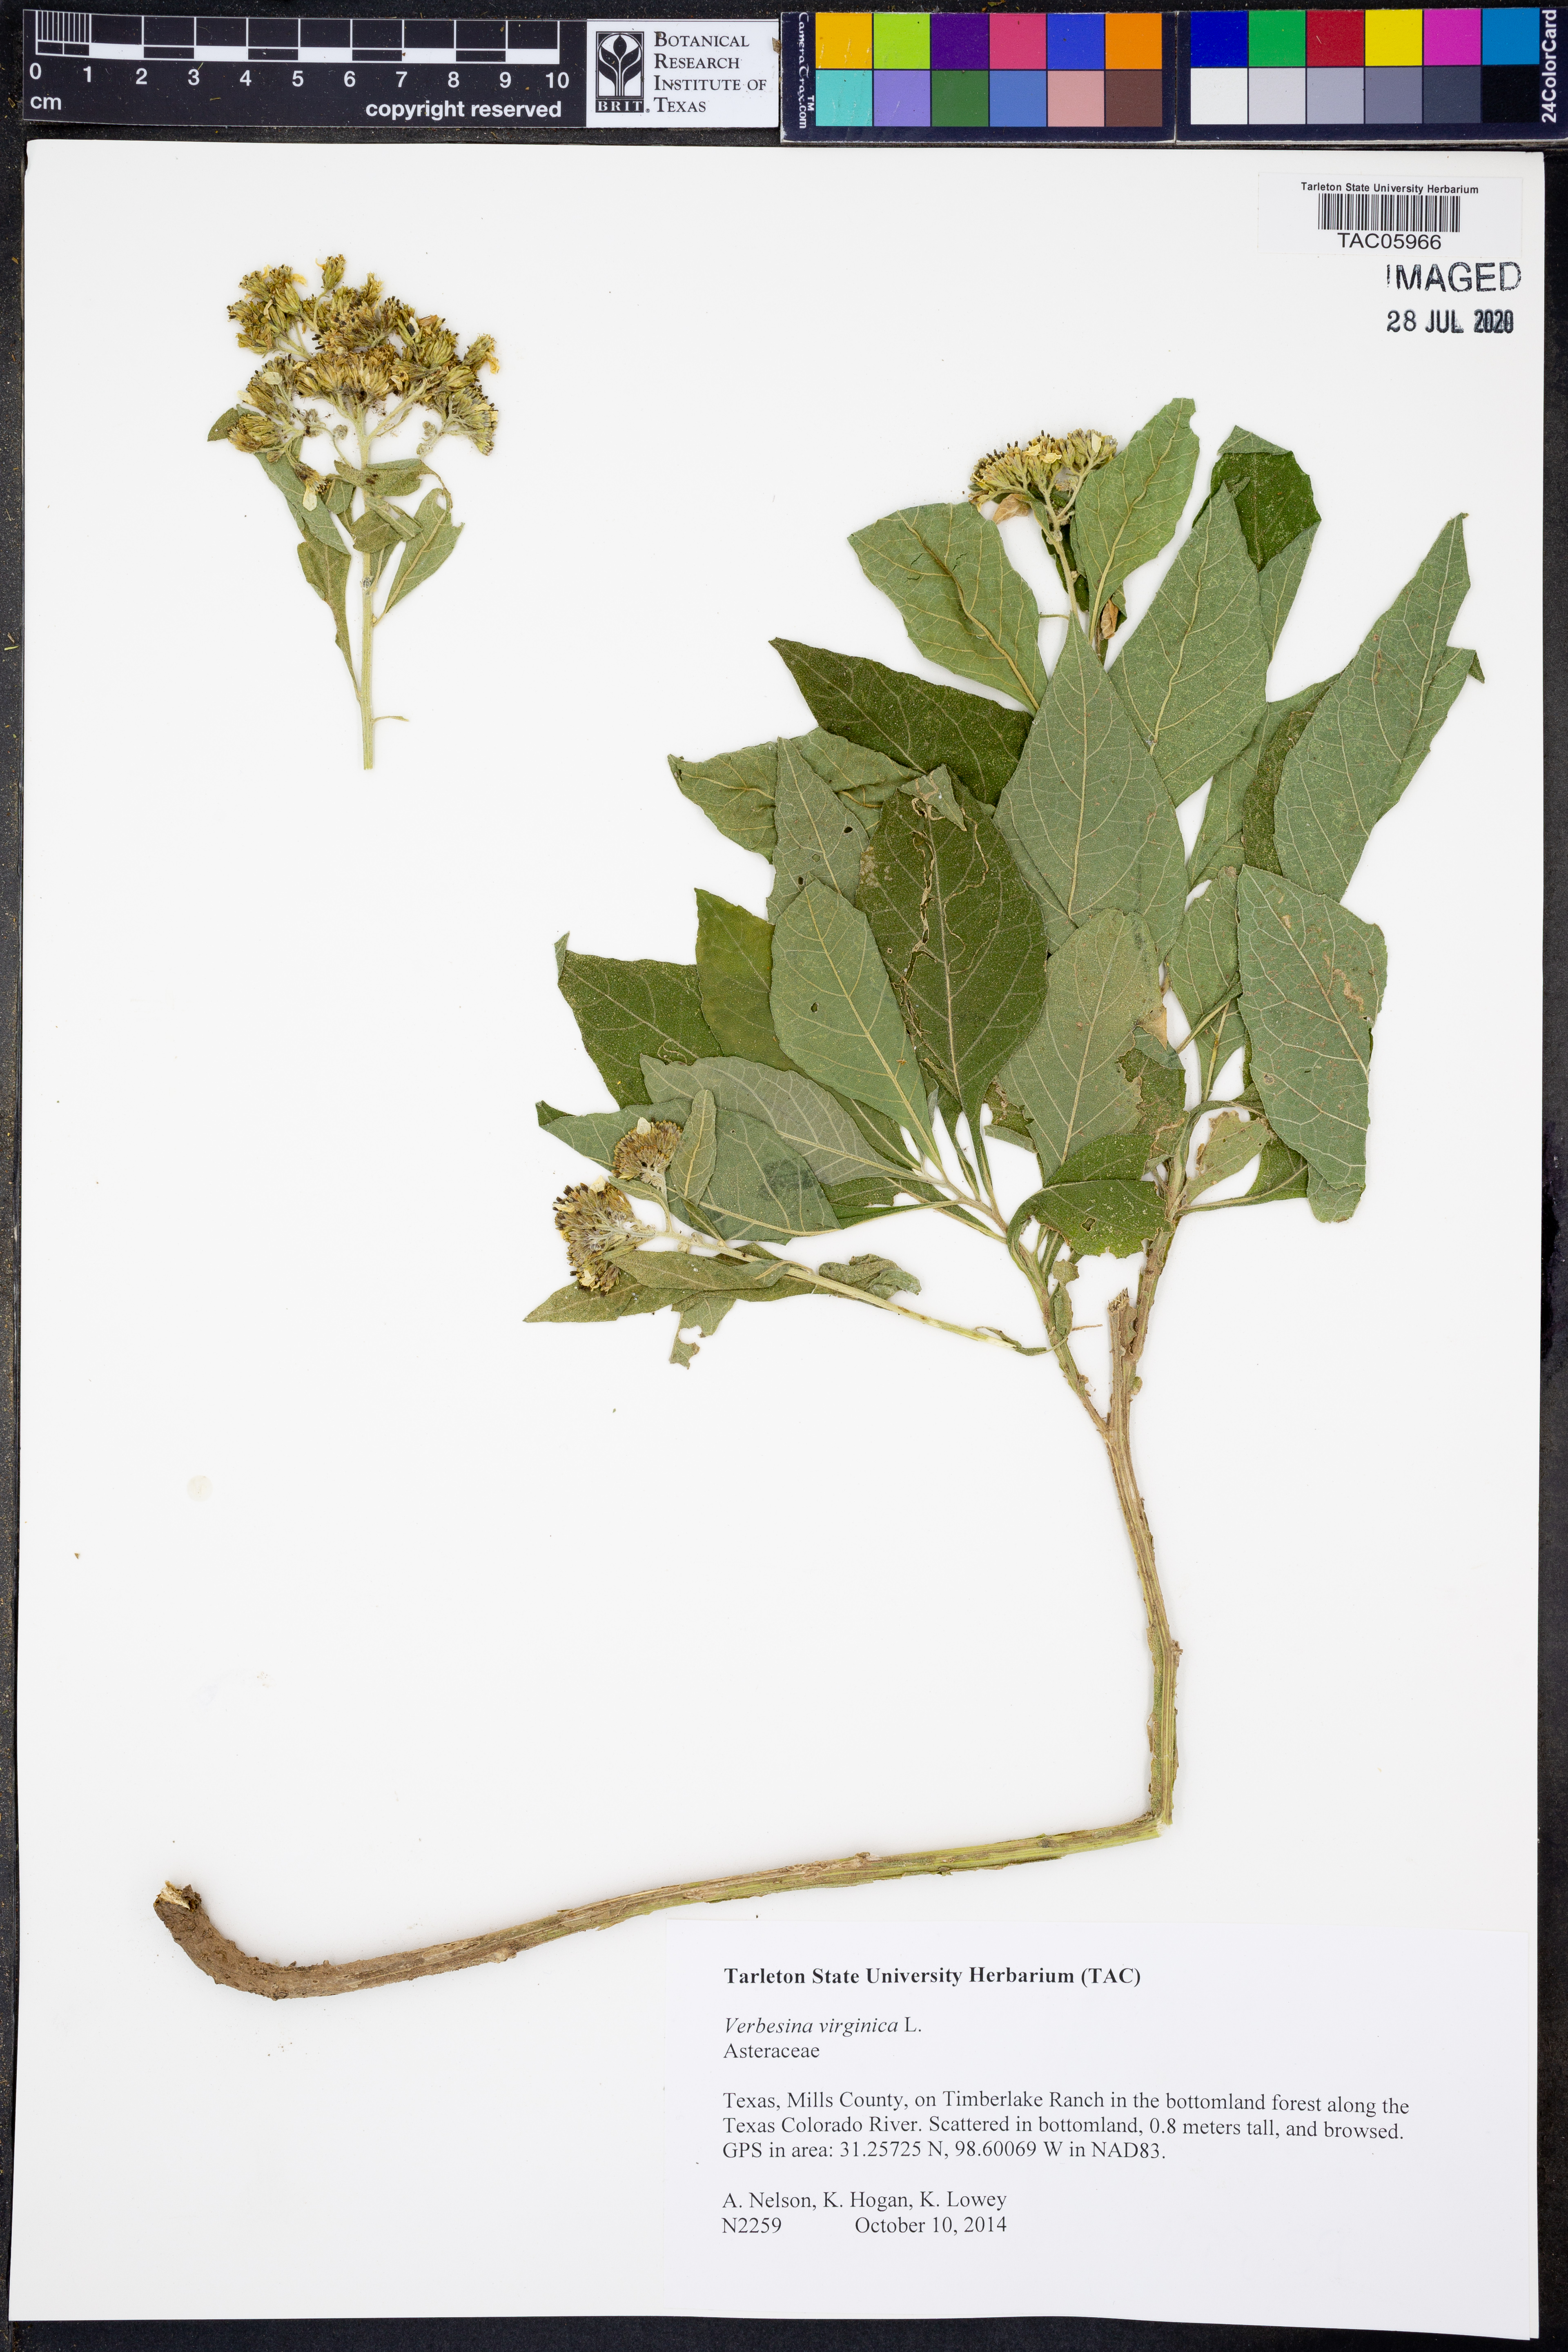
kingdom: Plantae
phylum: Tracheophyta
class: Magnoliopsida
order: Asterales
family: Asteraceae
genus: Verbesina
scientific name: Verbesina virginica
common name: Frostweed
